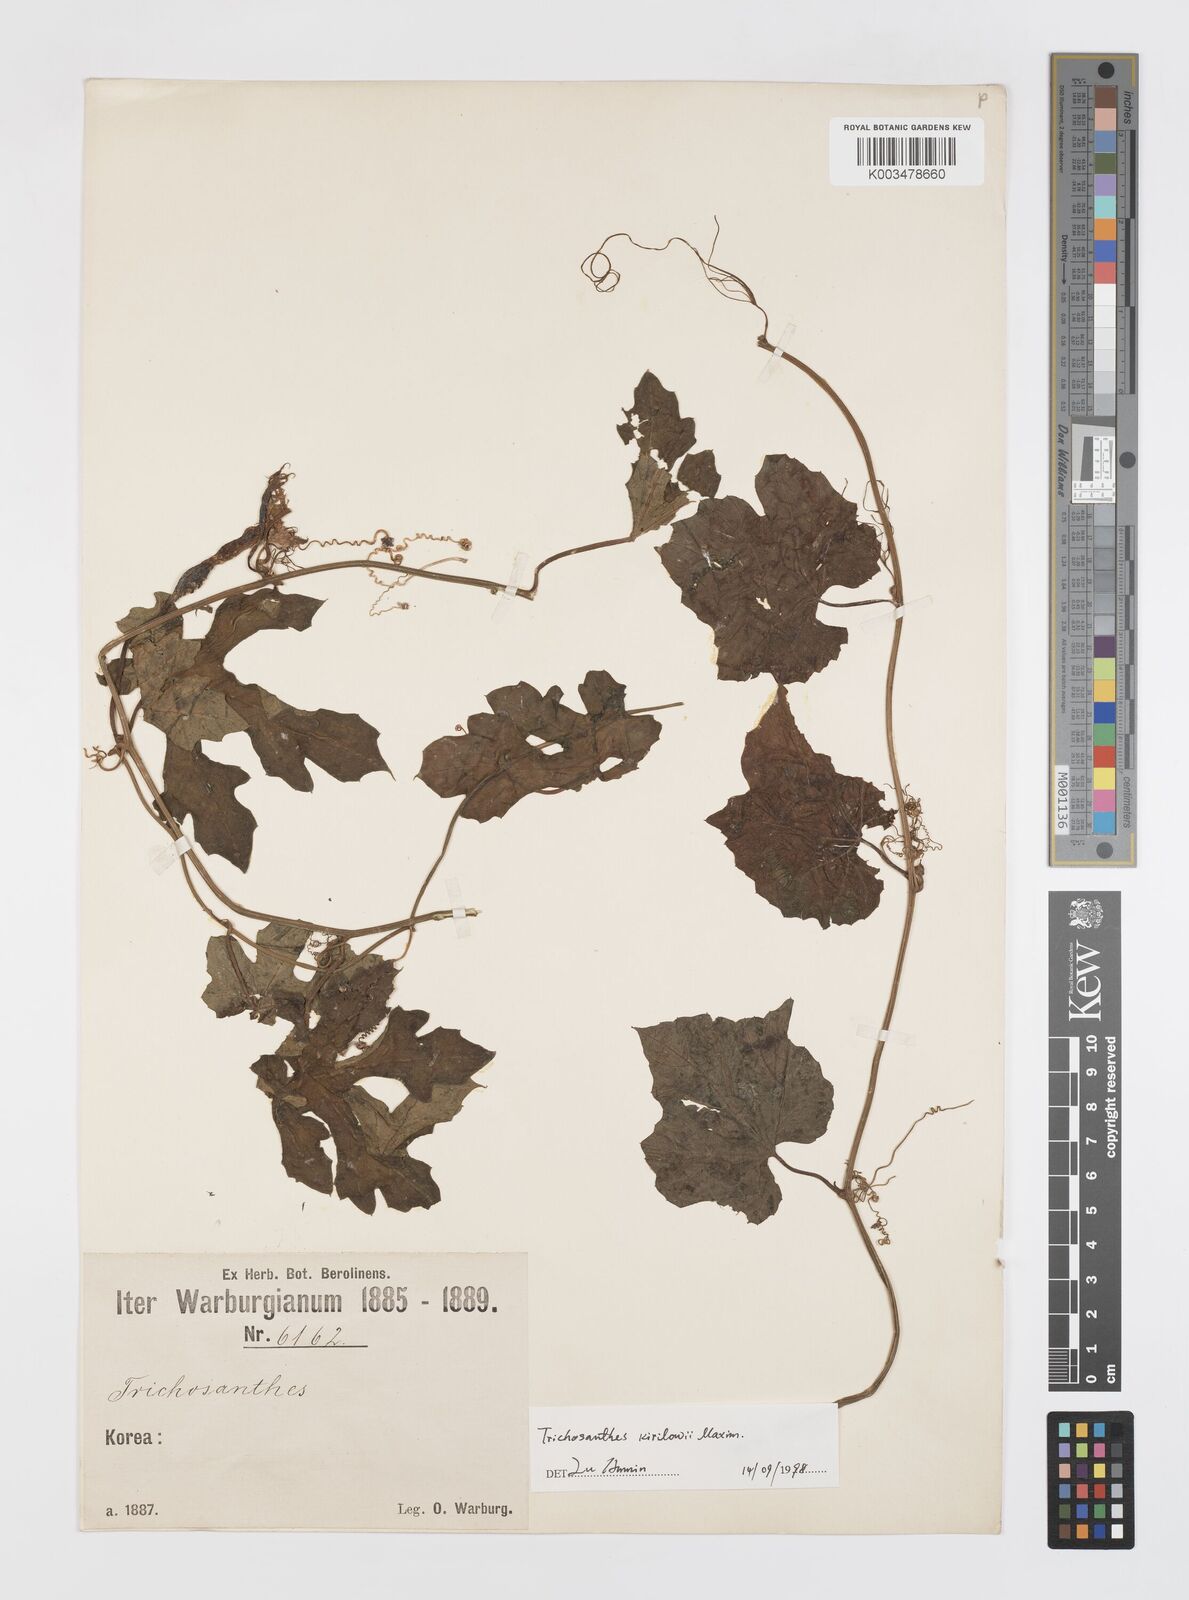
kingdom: Plantae
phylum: Tracheophyta
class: Magnoliopsida
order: Cucurbitales
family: Cucurbitaceae
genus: Trichosanthes
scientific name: Trichosanthes kirilowii
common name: Chinese-cucumber
